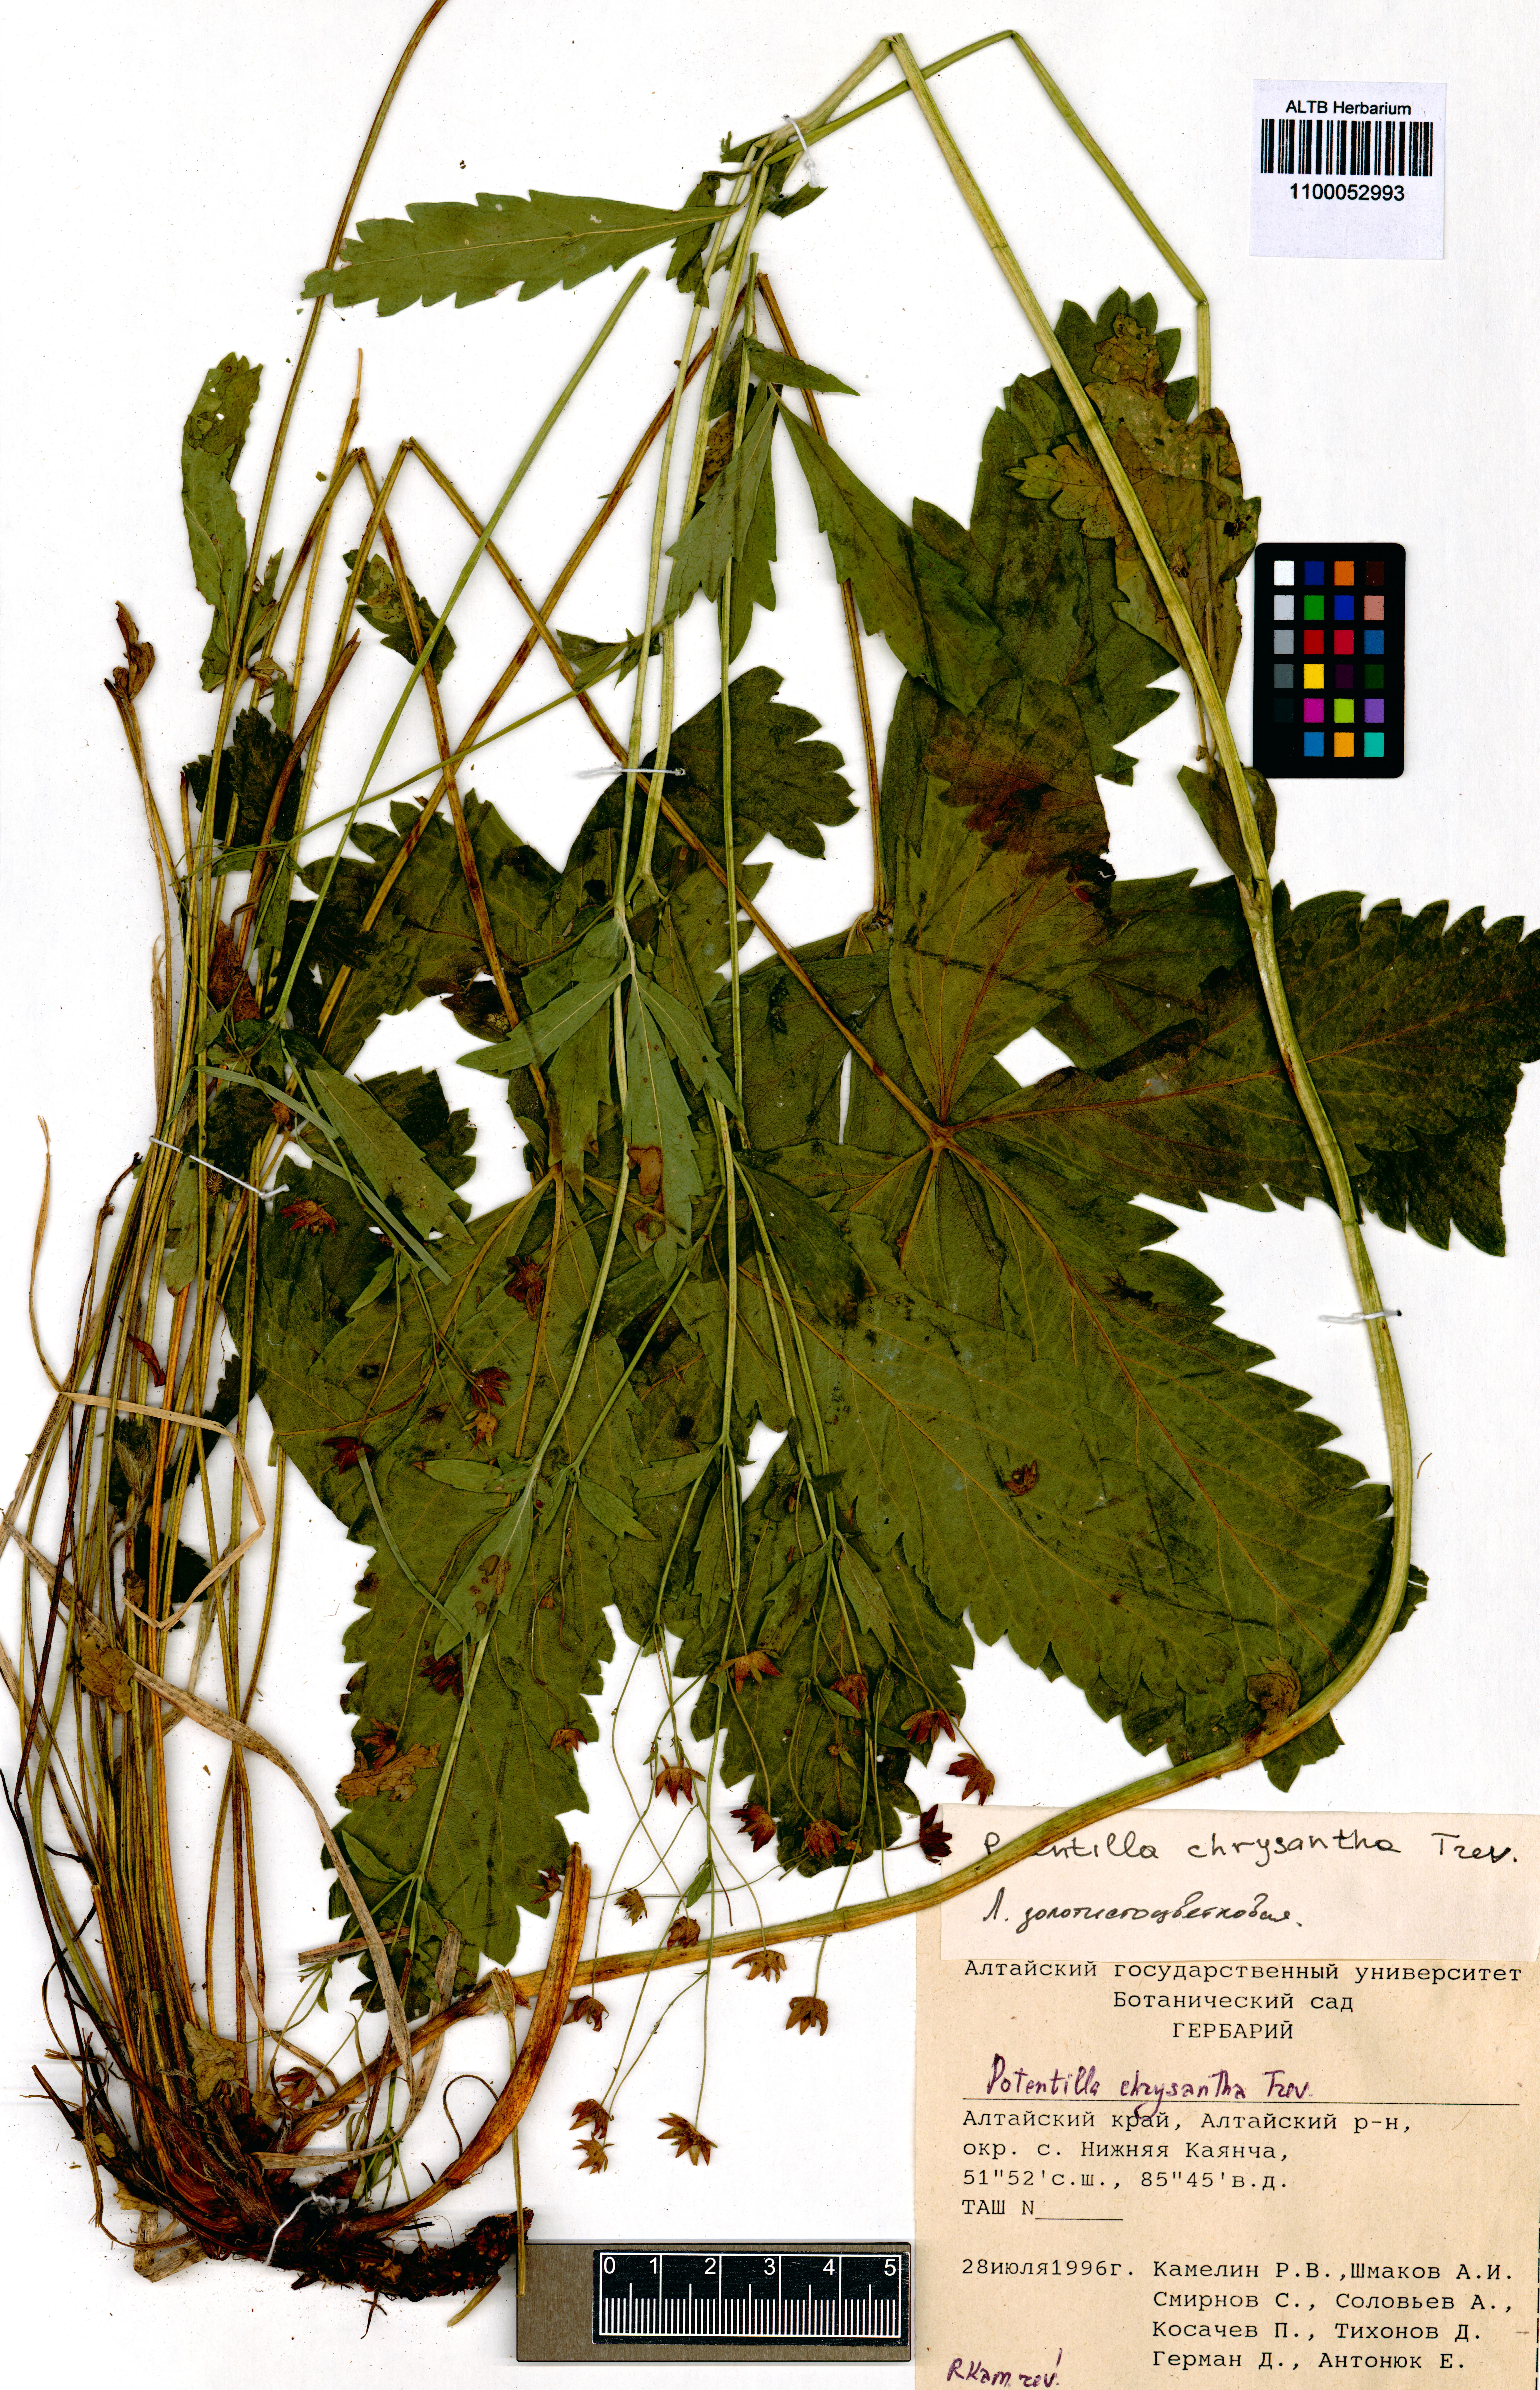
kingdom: Plantae
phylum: Tracheophyta
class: Magnoliopsida
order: Rosales
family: Rosaceae
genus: Potentilla
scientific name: Potentilla chrysantha
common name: Thuringian cinquefoil
